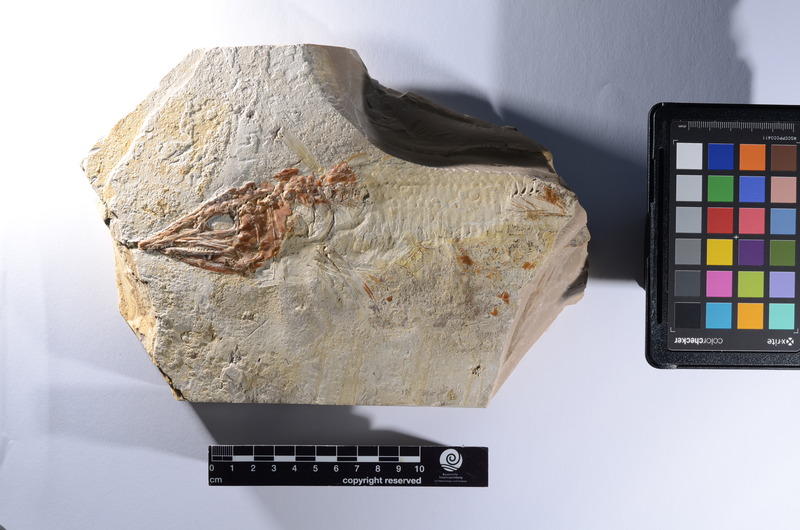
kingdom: Animalia
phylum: Chordata
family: Aspidorhynchidae
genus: Aspidorhynchus
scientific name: Aspidorhynchus
